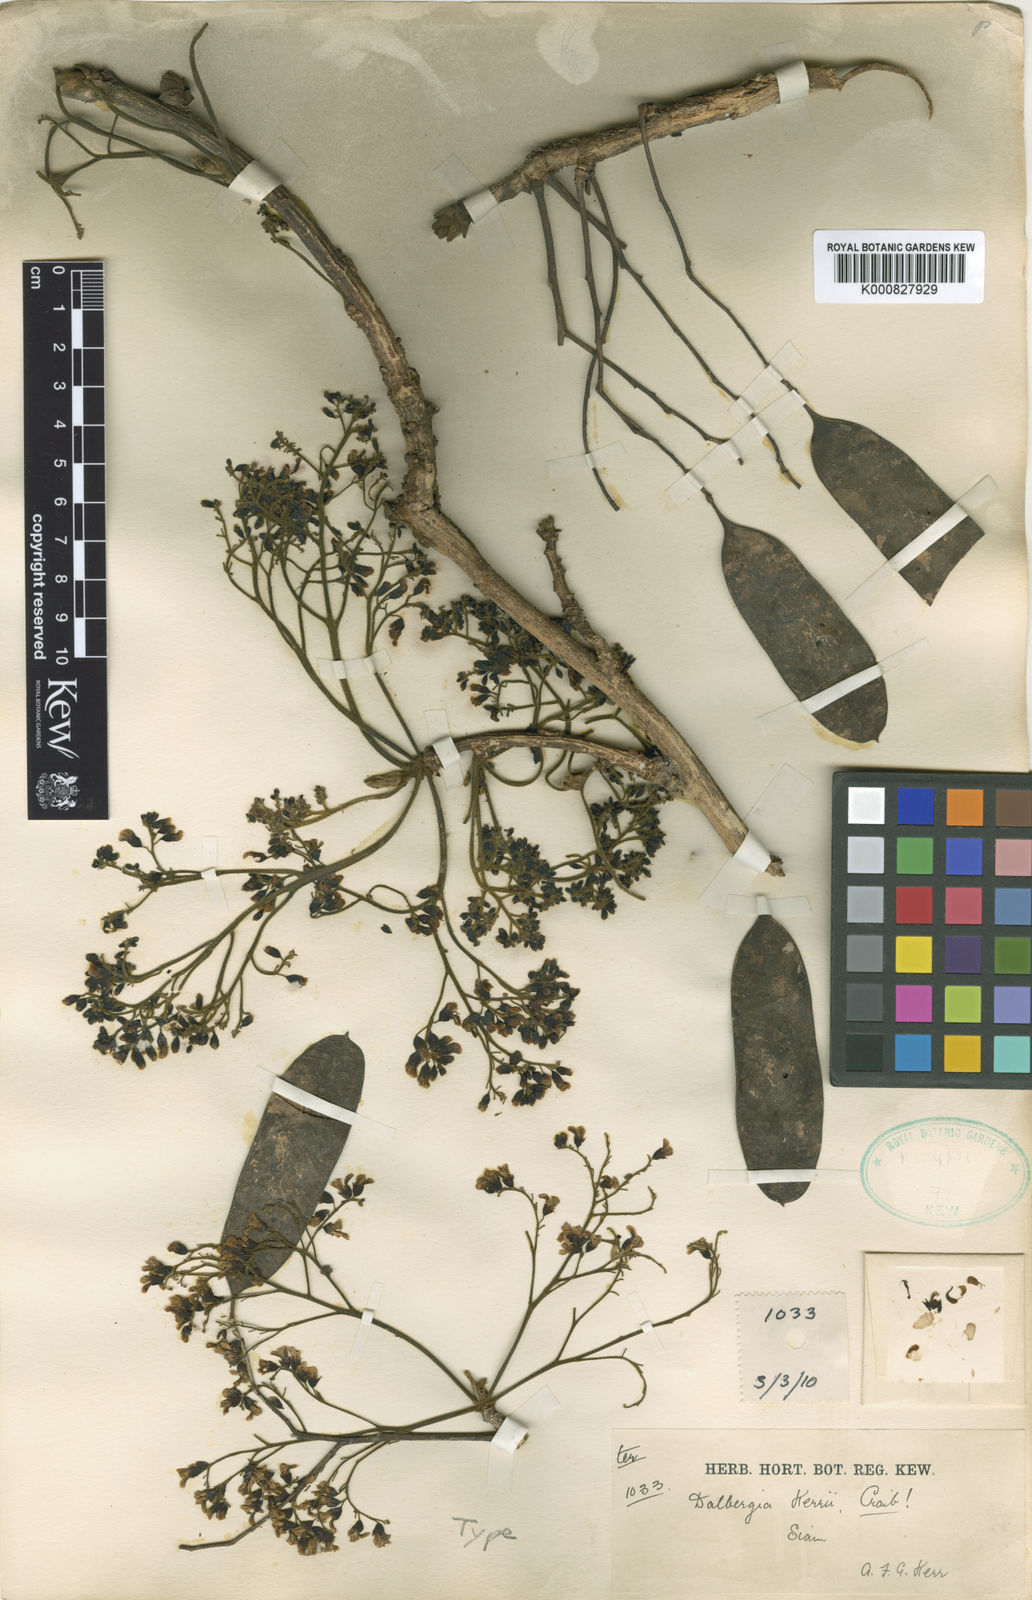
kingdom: Plantae
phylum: Tracheophyta
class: Magnoliopsida
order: Fabales
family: Fabaceae
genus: Dalbergia
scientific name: Dalbergia
